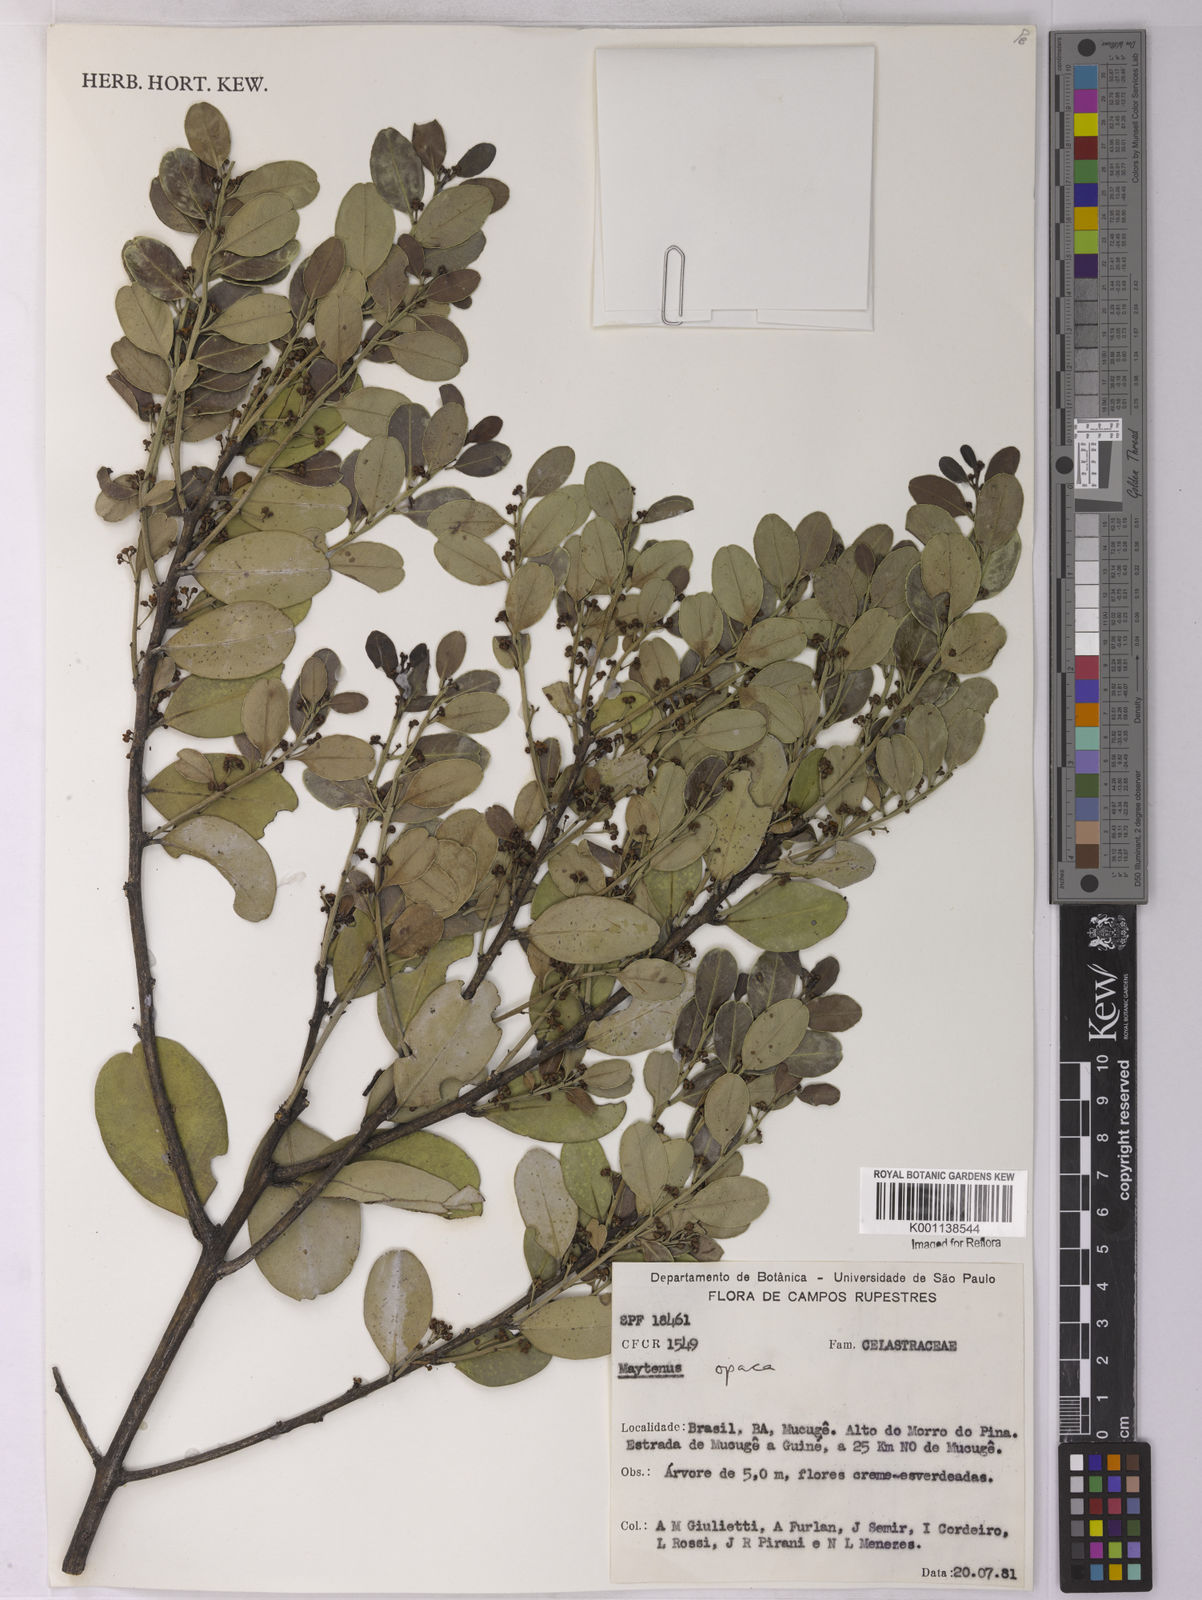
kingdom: Plantae
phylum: Tracheophyta
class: Magnoliopsida
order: Celastrales
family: Celastraceae
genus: Monteverdia
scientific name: Monteverdia opaca
